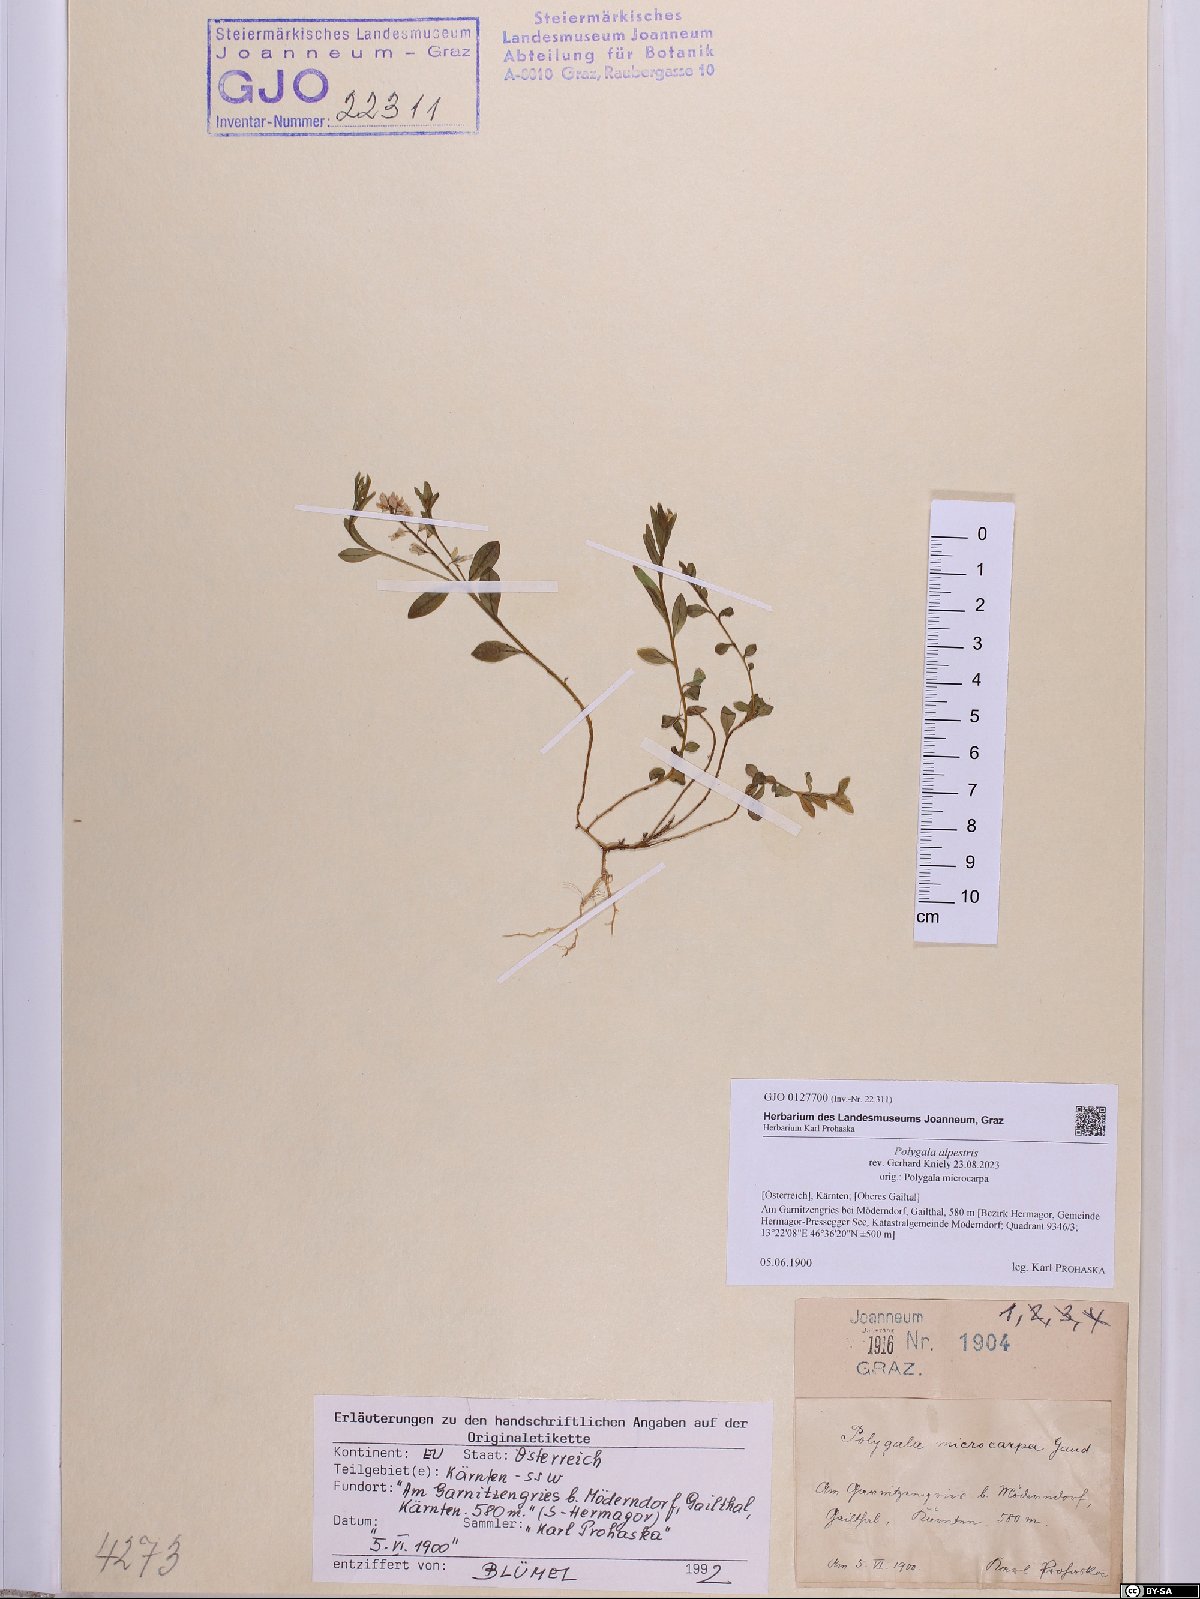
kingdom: Plantae
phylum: Tracheophyta
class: Magnoliopsida
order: Fabales
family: Polygalaceae
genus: Polygala
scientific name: Polygala alpestris
